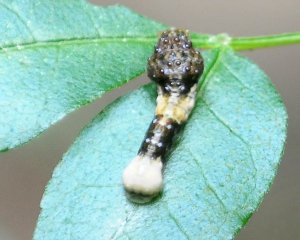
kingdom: Animalia
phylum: Arthropoda
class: Insecta
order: Lepidoptera
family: Papilionidae
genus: Papilio
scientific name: Papilio cresphontes
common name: Eastern Giant Swallowtail
